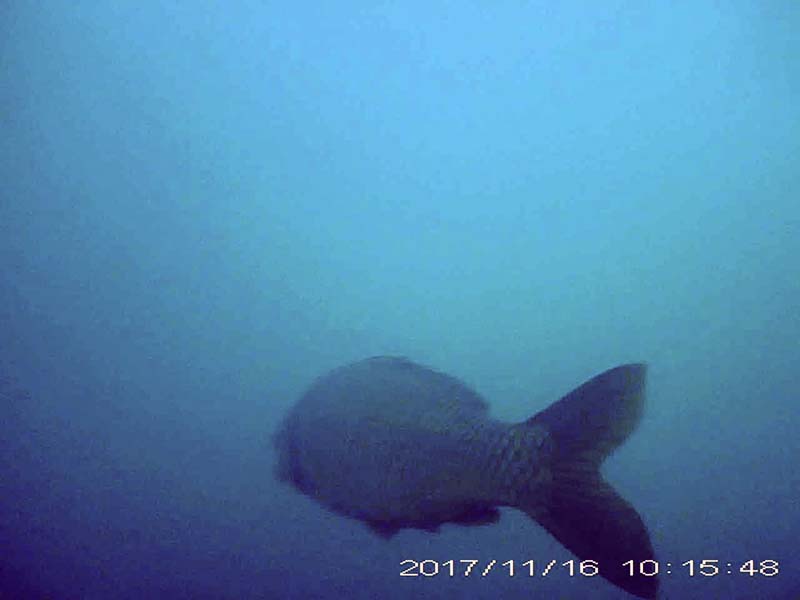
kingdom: Animalia
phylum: Chordata
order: Cypriniformes
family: Cyprinidae
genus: Cyprinus
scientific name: Cyprinus carpio
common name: コイ
